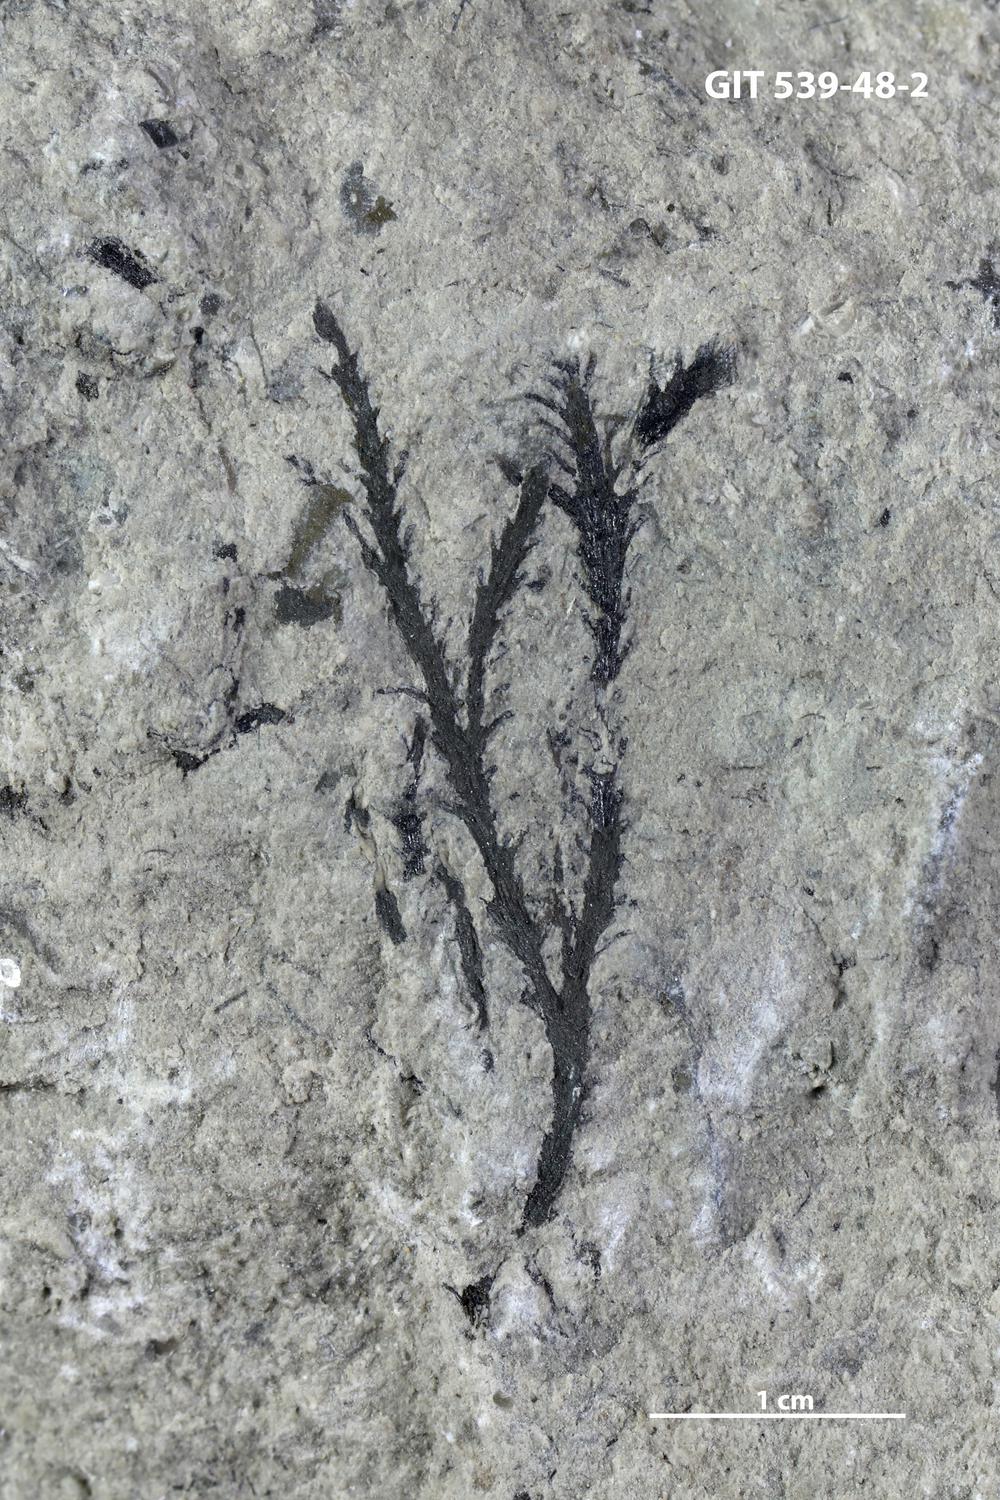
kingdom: Animalia
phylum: Hemichordata
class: Pterobranchia
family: Dendrograptidae
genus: Dendrograptus
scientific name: Dendrograptus
